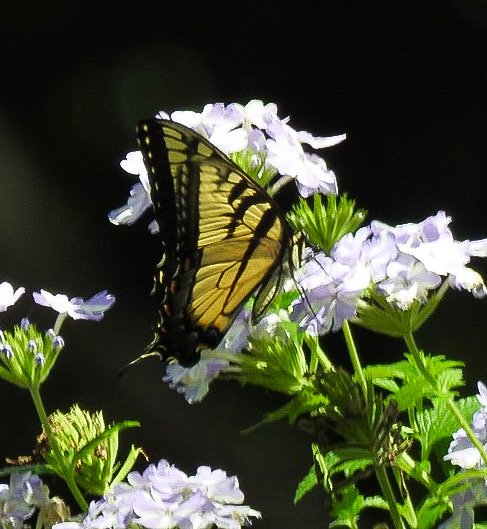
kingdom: Animalia
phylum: Arthropoda
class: Insecta
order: Lepidoptera
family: Papilionidae
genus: Pterourus
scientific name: Pterourus glaucus
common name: Eastern Tiger Swallowtail
